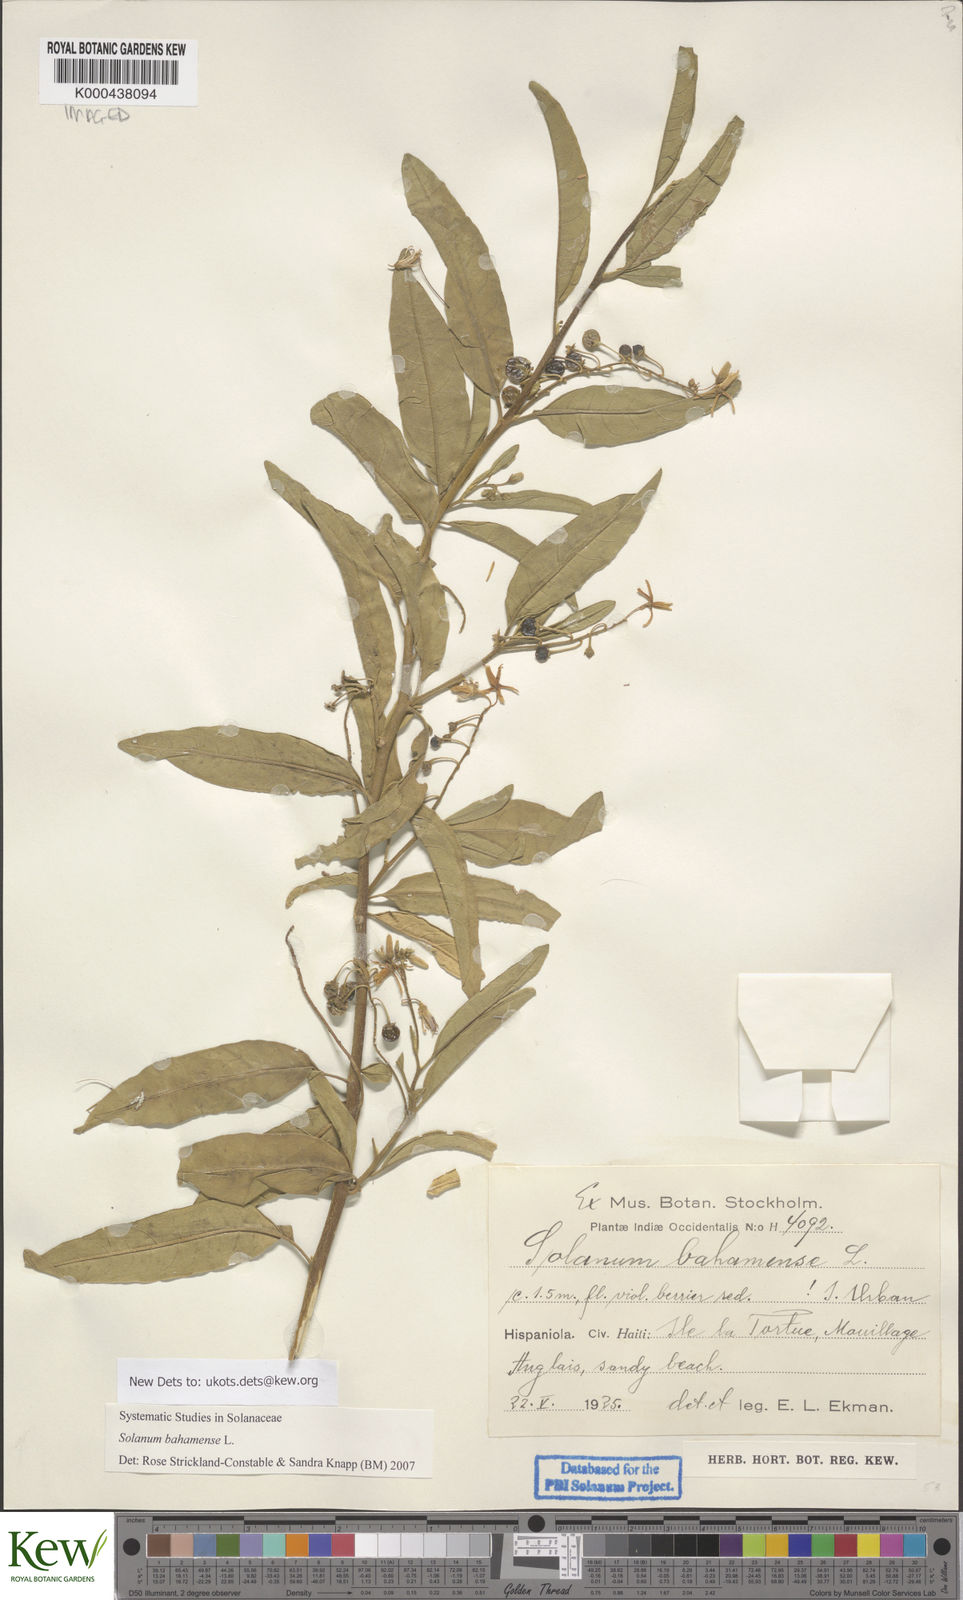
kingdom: Plantae
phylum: Tracheophyta
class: Magnoliopsida
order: Solanales
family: Solanaceae
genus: Solanum
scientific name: Solanum bahamense
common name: Canker-berry
